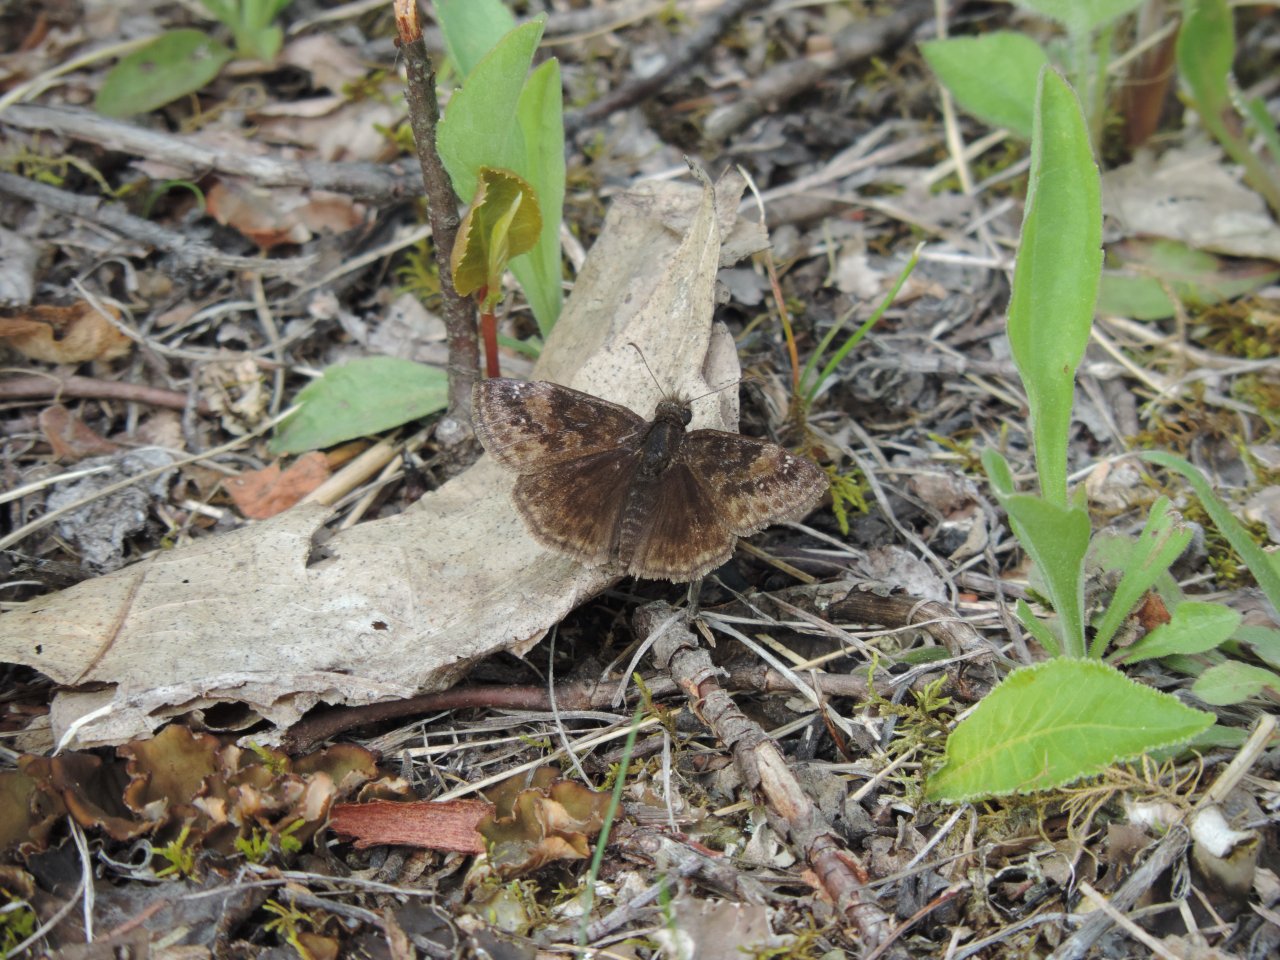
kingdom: Animalia
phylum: Arthropoda
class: Insecta
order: Lepidoptera
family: Hesperiidae
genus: Gesta
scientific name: Gesta
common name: Columbine Duskywing
